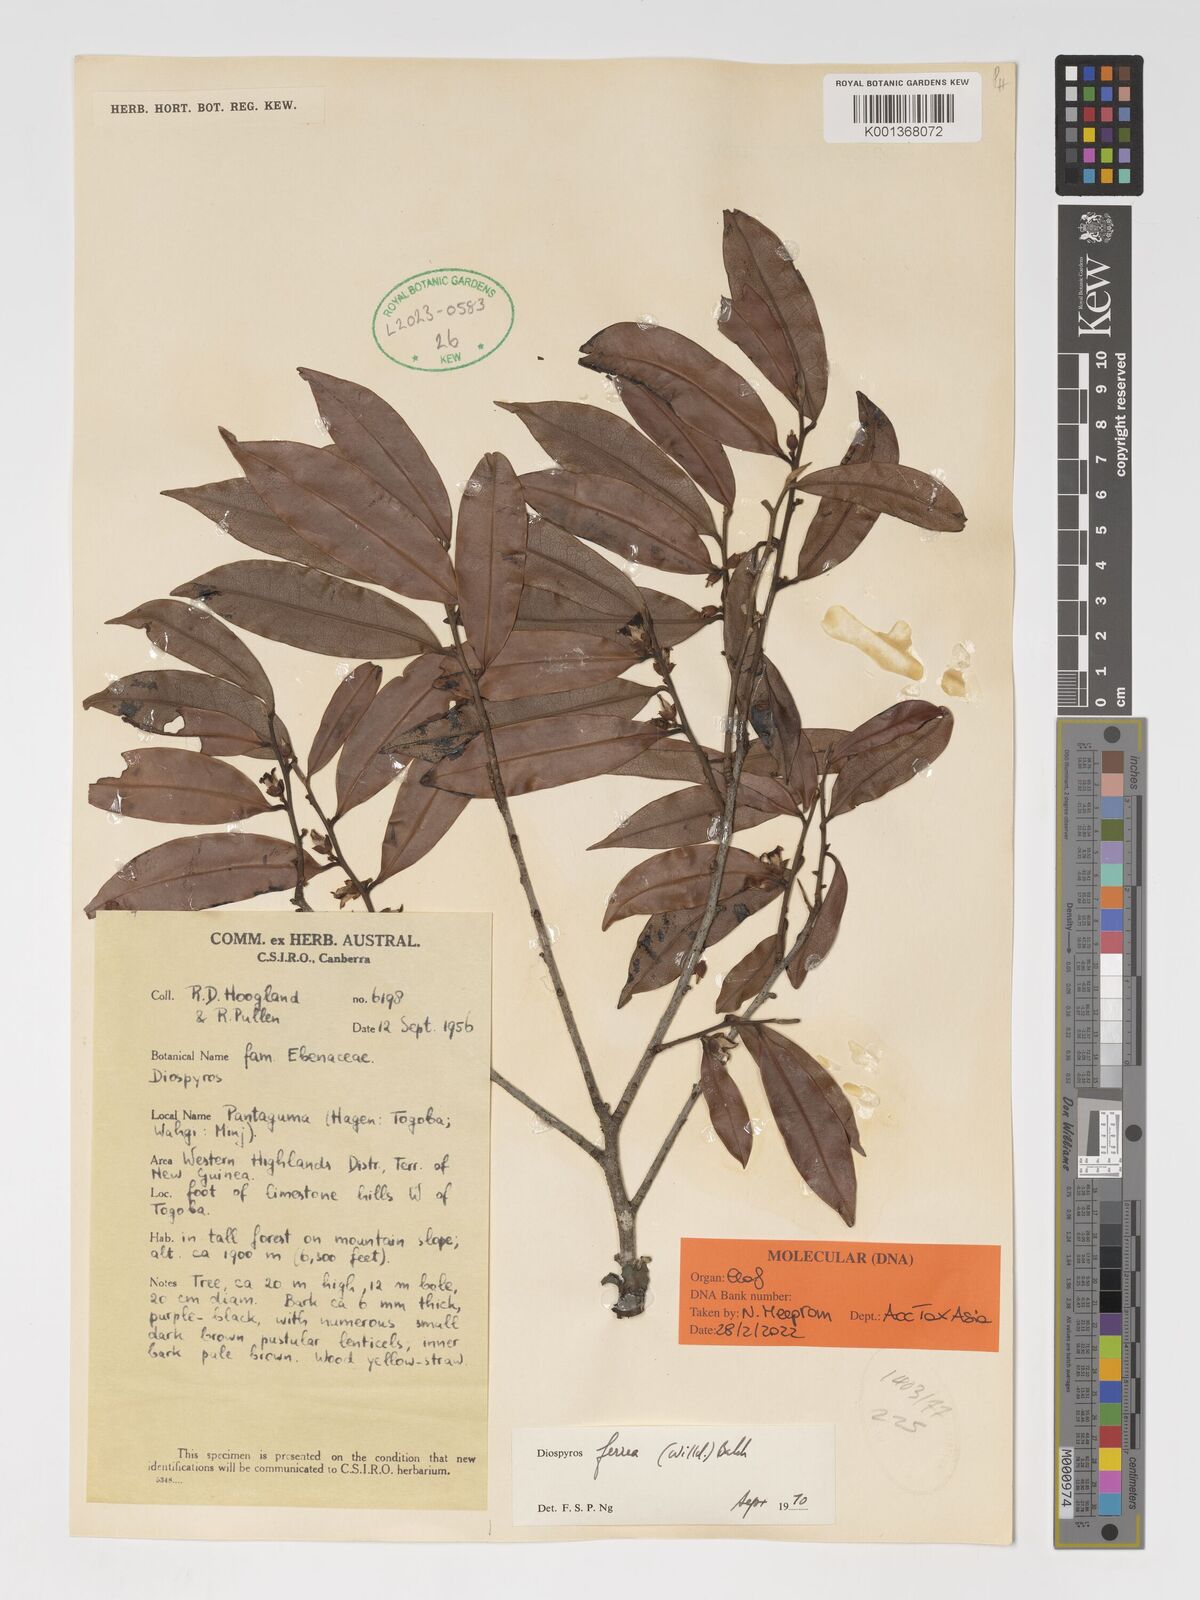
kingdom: Plantae
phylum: Tracheophyta
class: Magnoliopsida
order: Ericales
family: Ebenaceae
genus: Diospyros
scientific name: Diospyros ferrea
